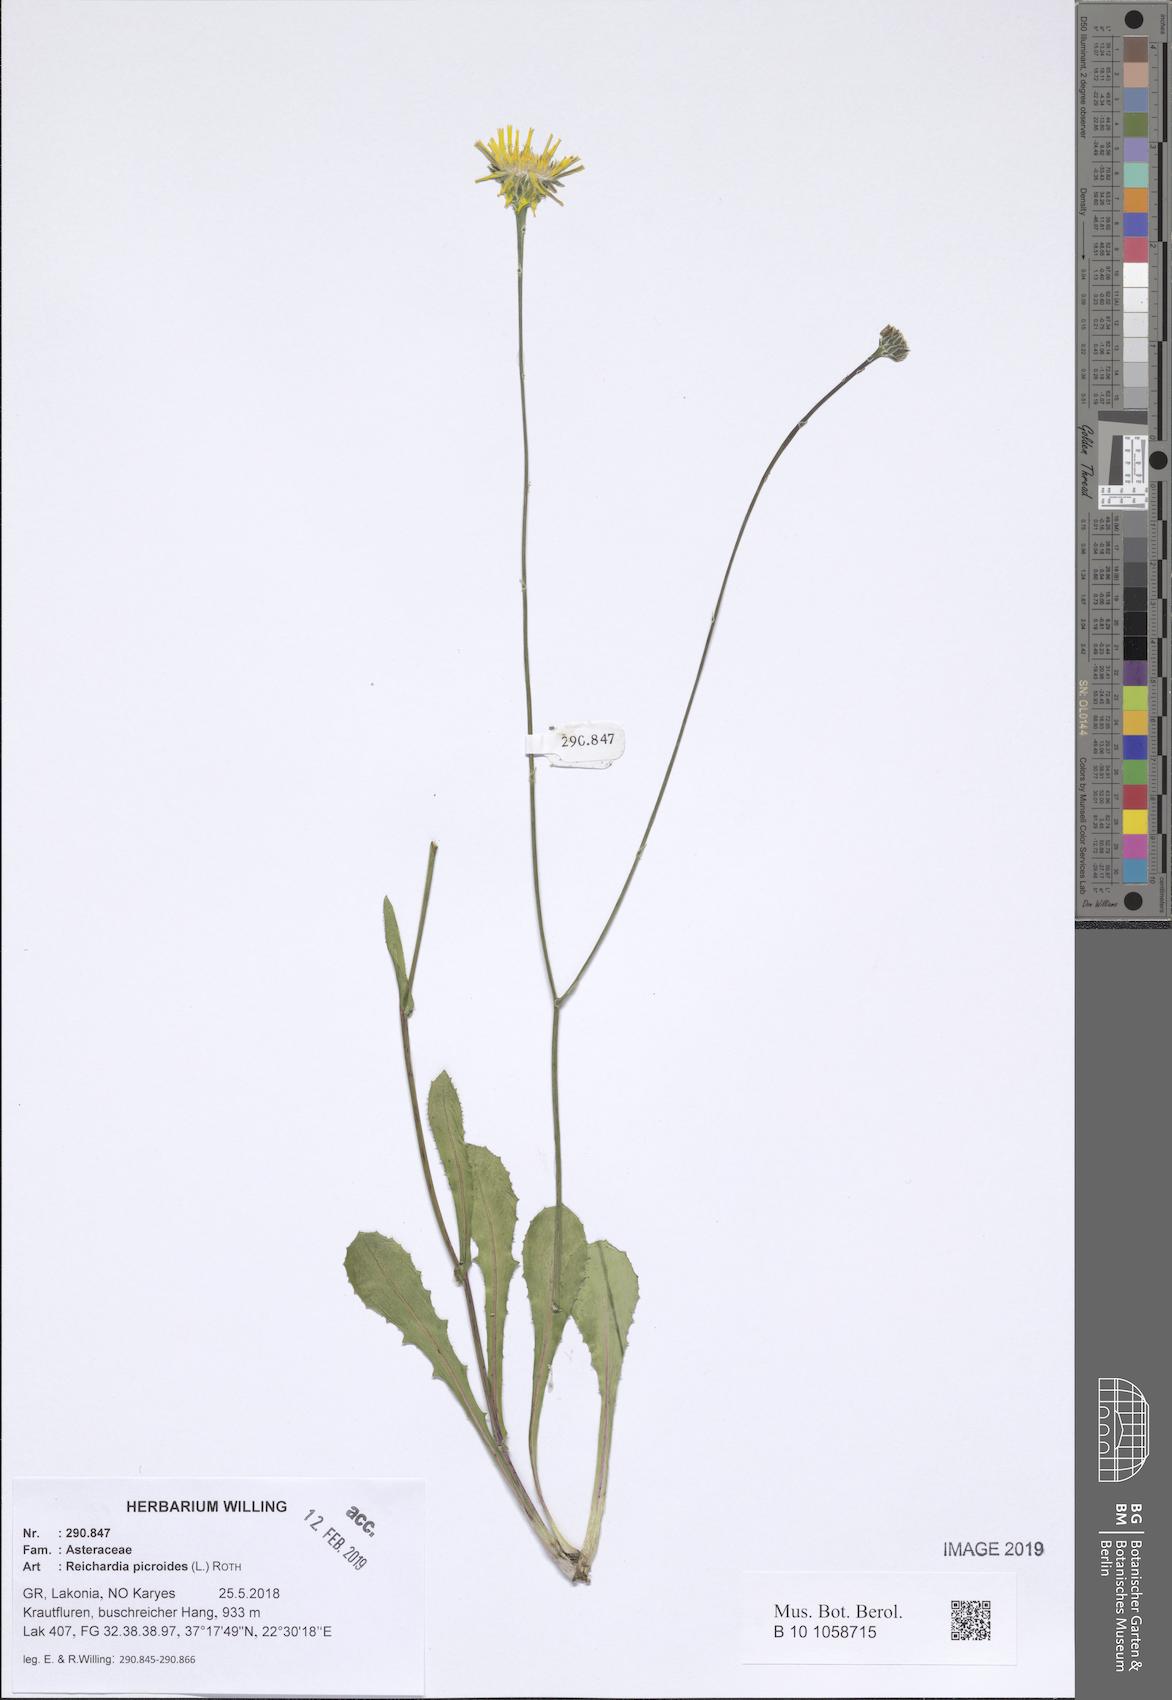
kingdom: Plantae
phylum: Tracheophyta
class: Magnoliopsida
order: Asterales
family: Asteraceae
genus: Reichardia
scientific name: Reichardia picroides
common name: Common brighteyes
